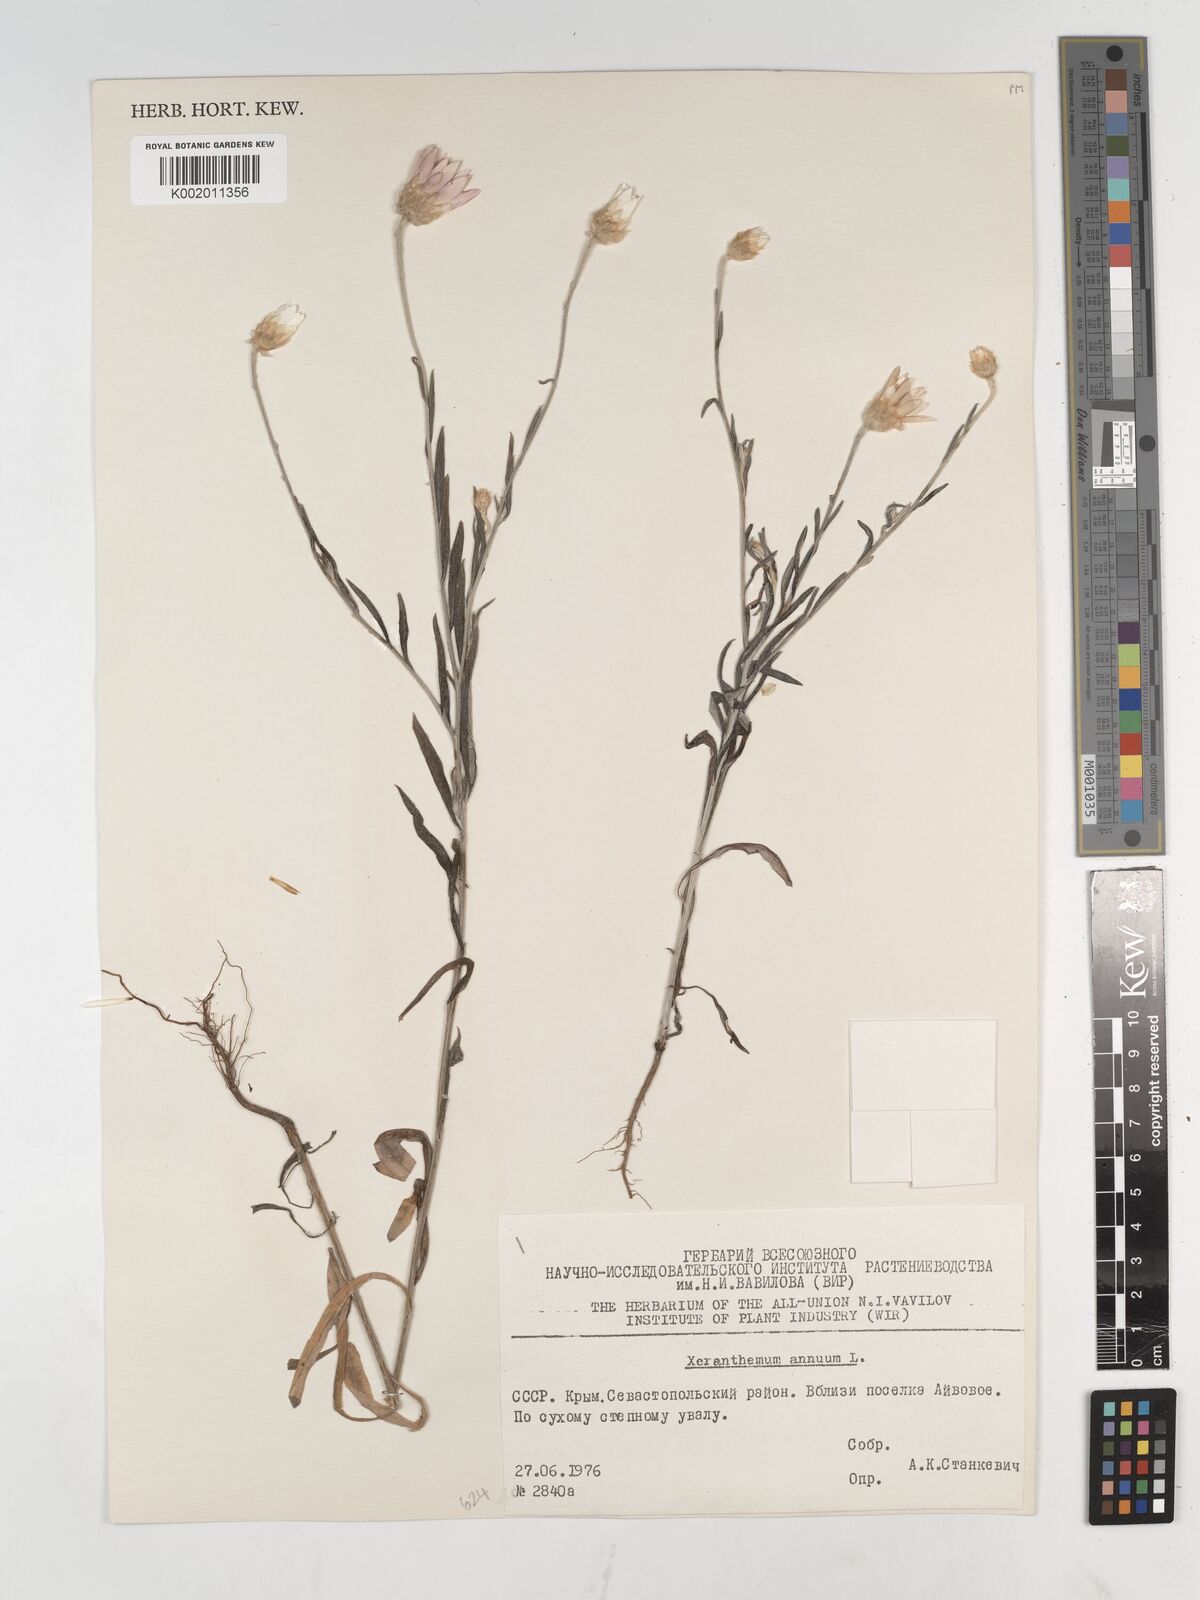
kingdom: Plantae
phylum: Tracheophyta
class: Magnoliopsida
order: Asterales
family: Asteraceae
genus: Xeranthemum
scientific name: Xeranthemum annuum
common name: Immortelle
